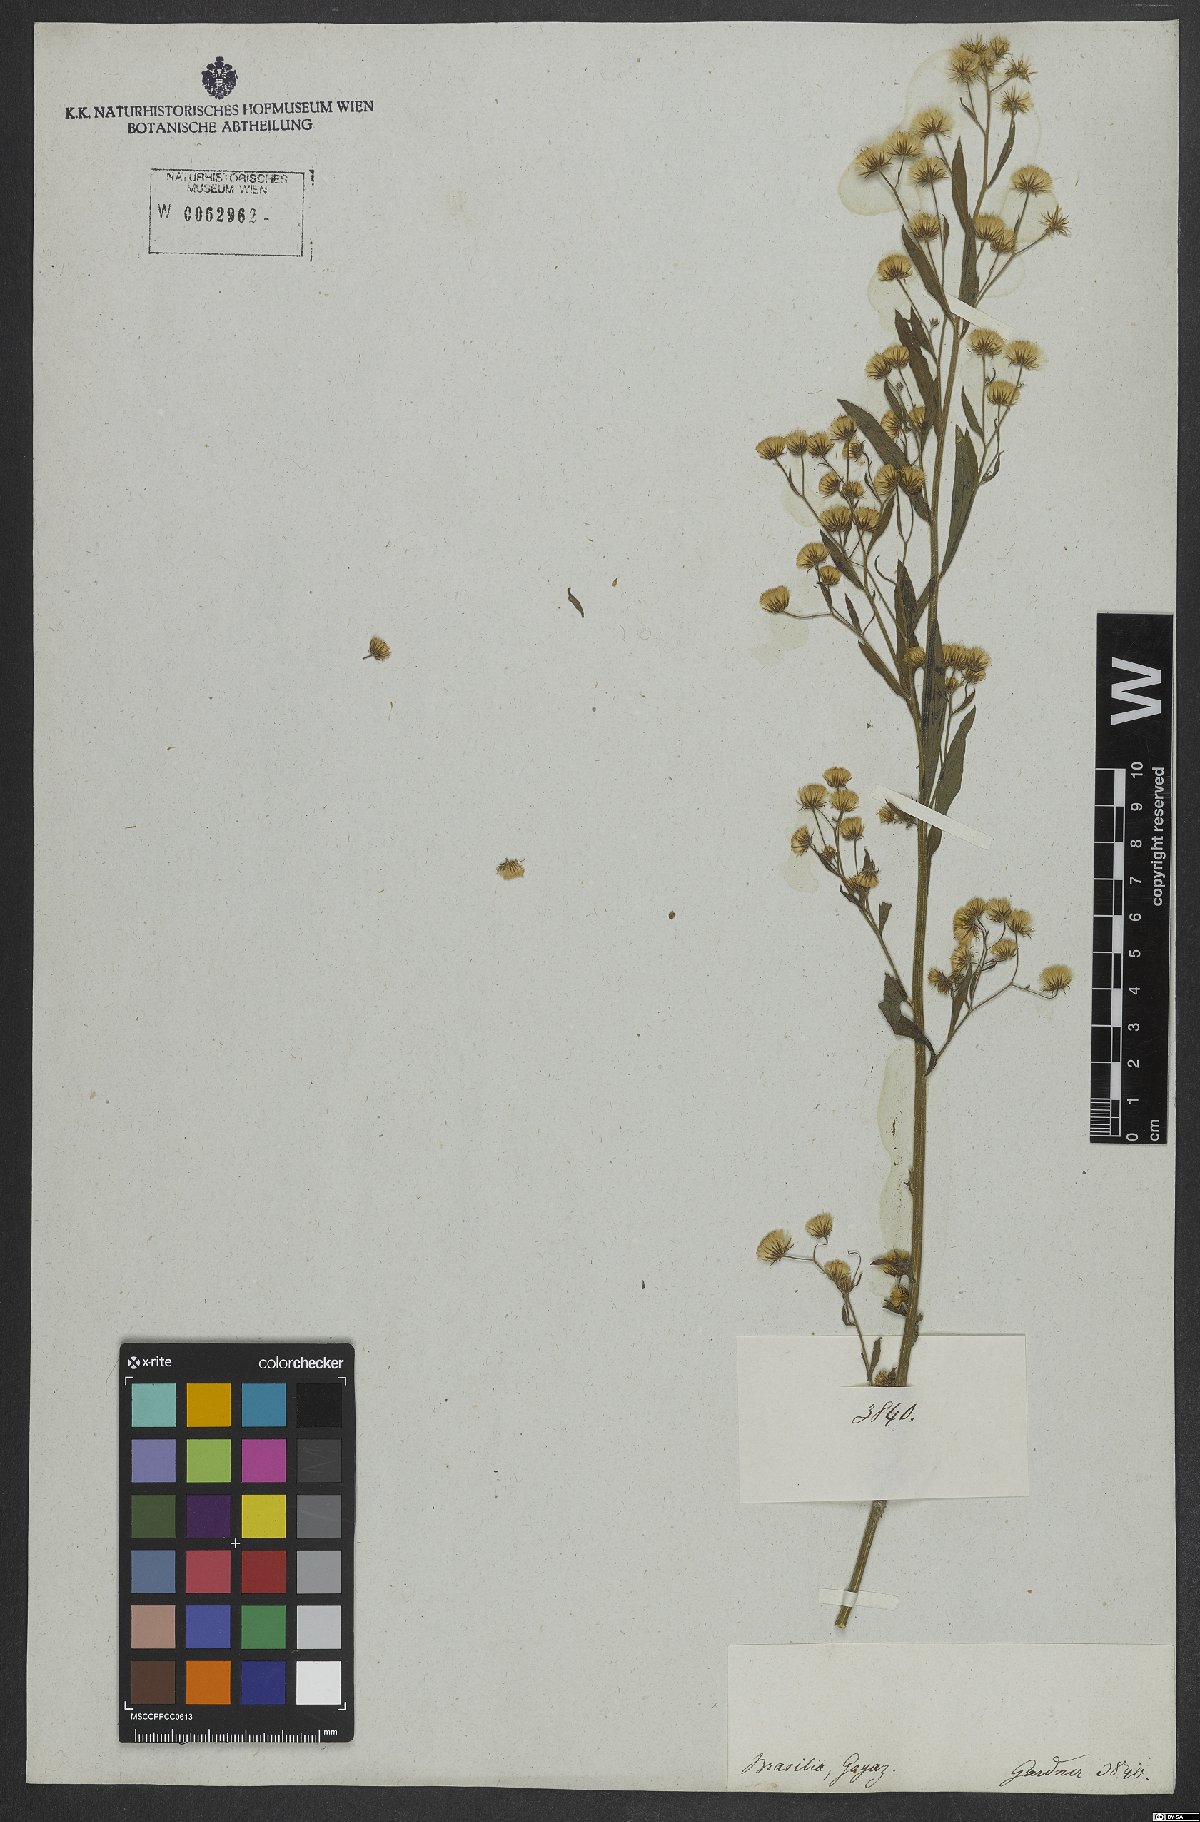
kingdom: Plantae
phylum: Tracheophyta
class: Magnoliopsida
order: Asterales
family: Asteraceae
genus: Conyza
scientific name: Conyza
